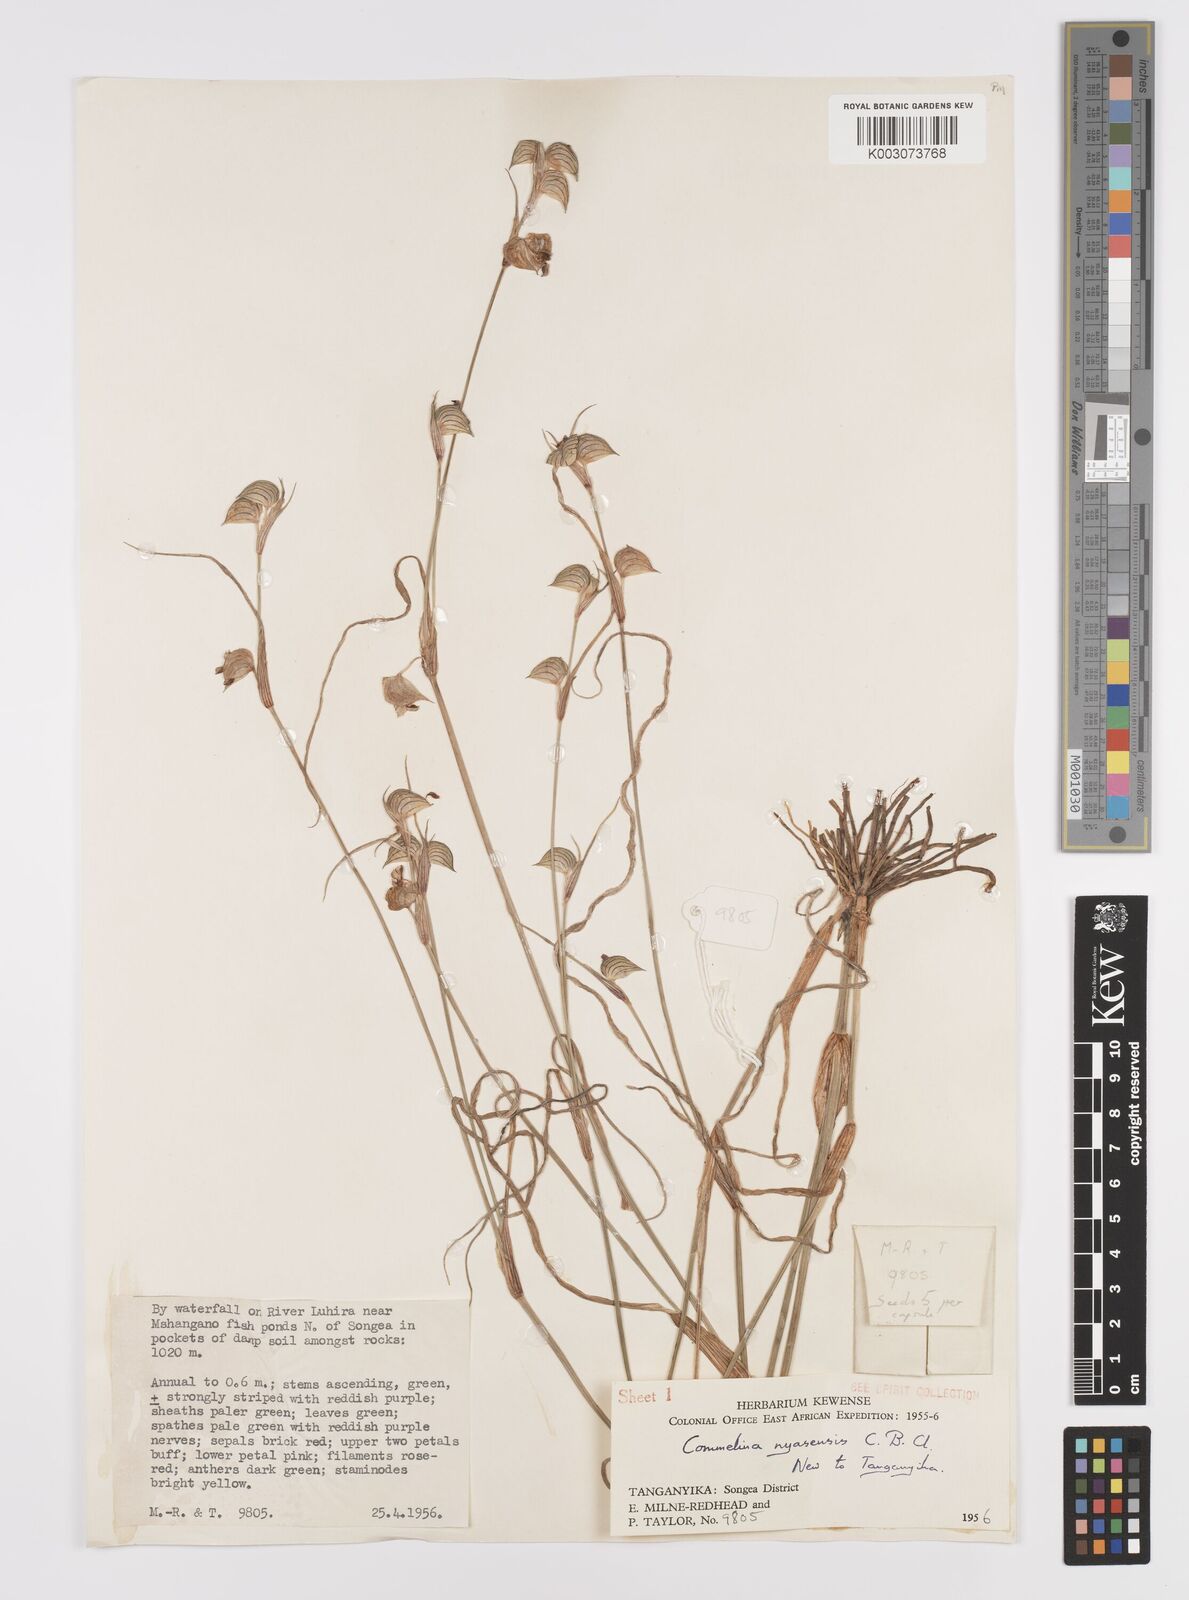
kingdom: Plantae
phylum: Tracheophyta
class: Liliopsida
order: Commelinales
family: Commelinaceae
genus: Commelina
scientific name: Commelina nyasensis
